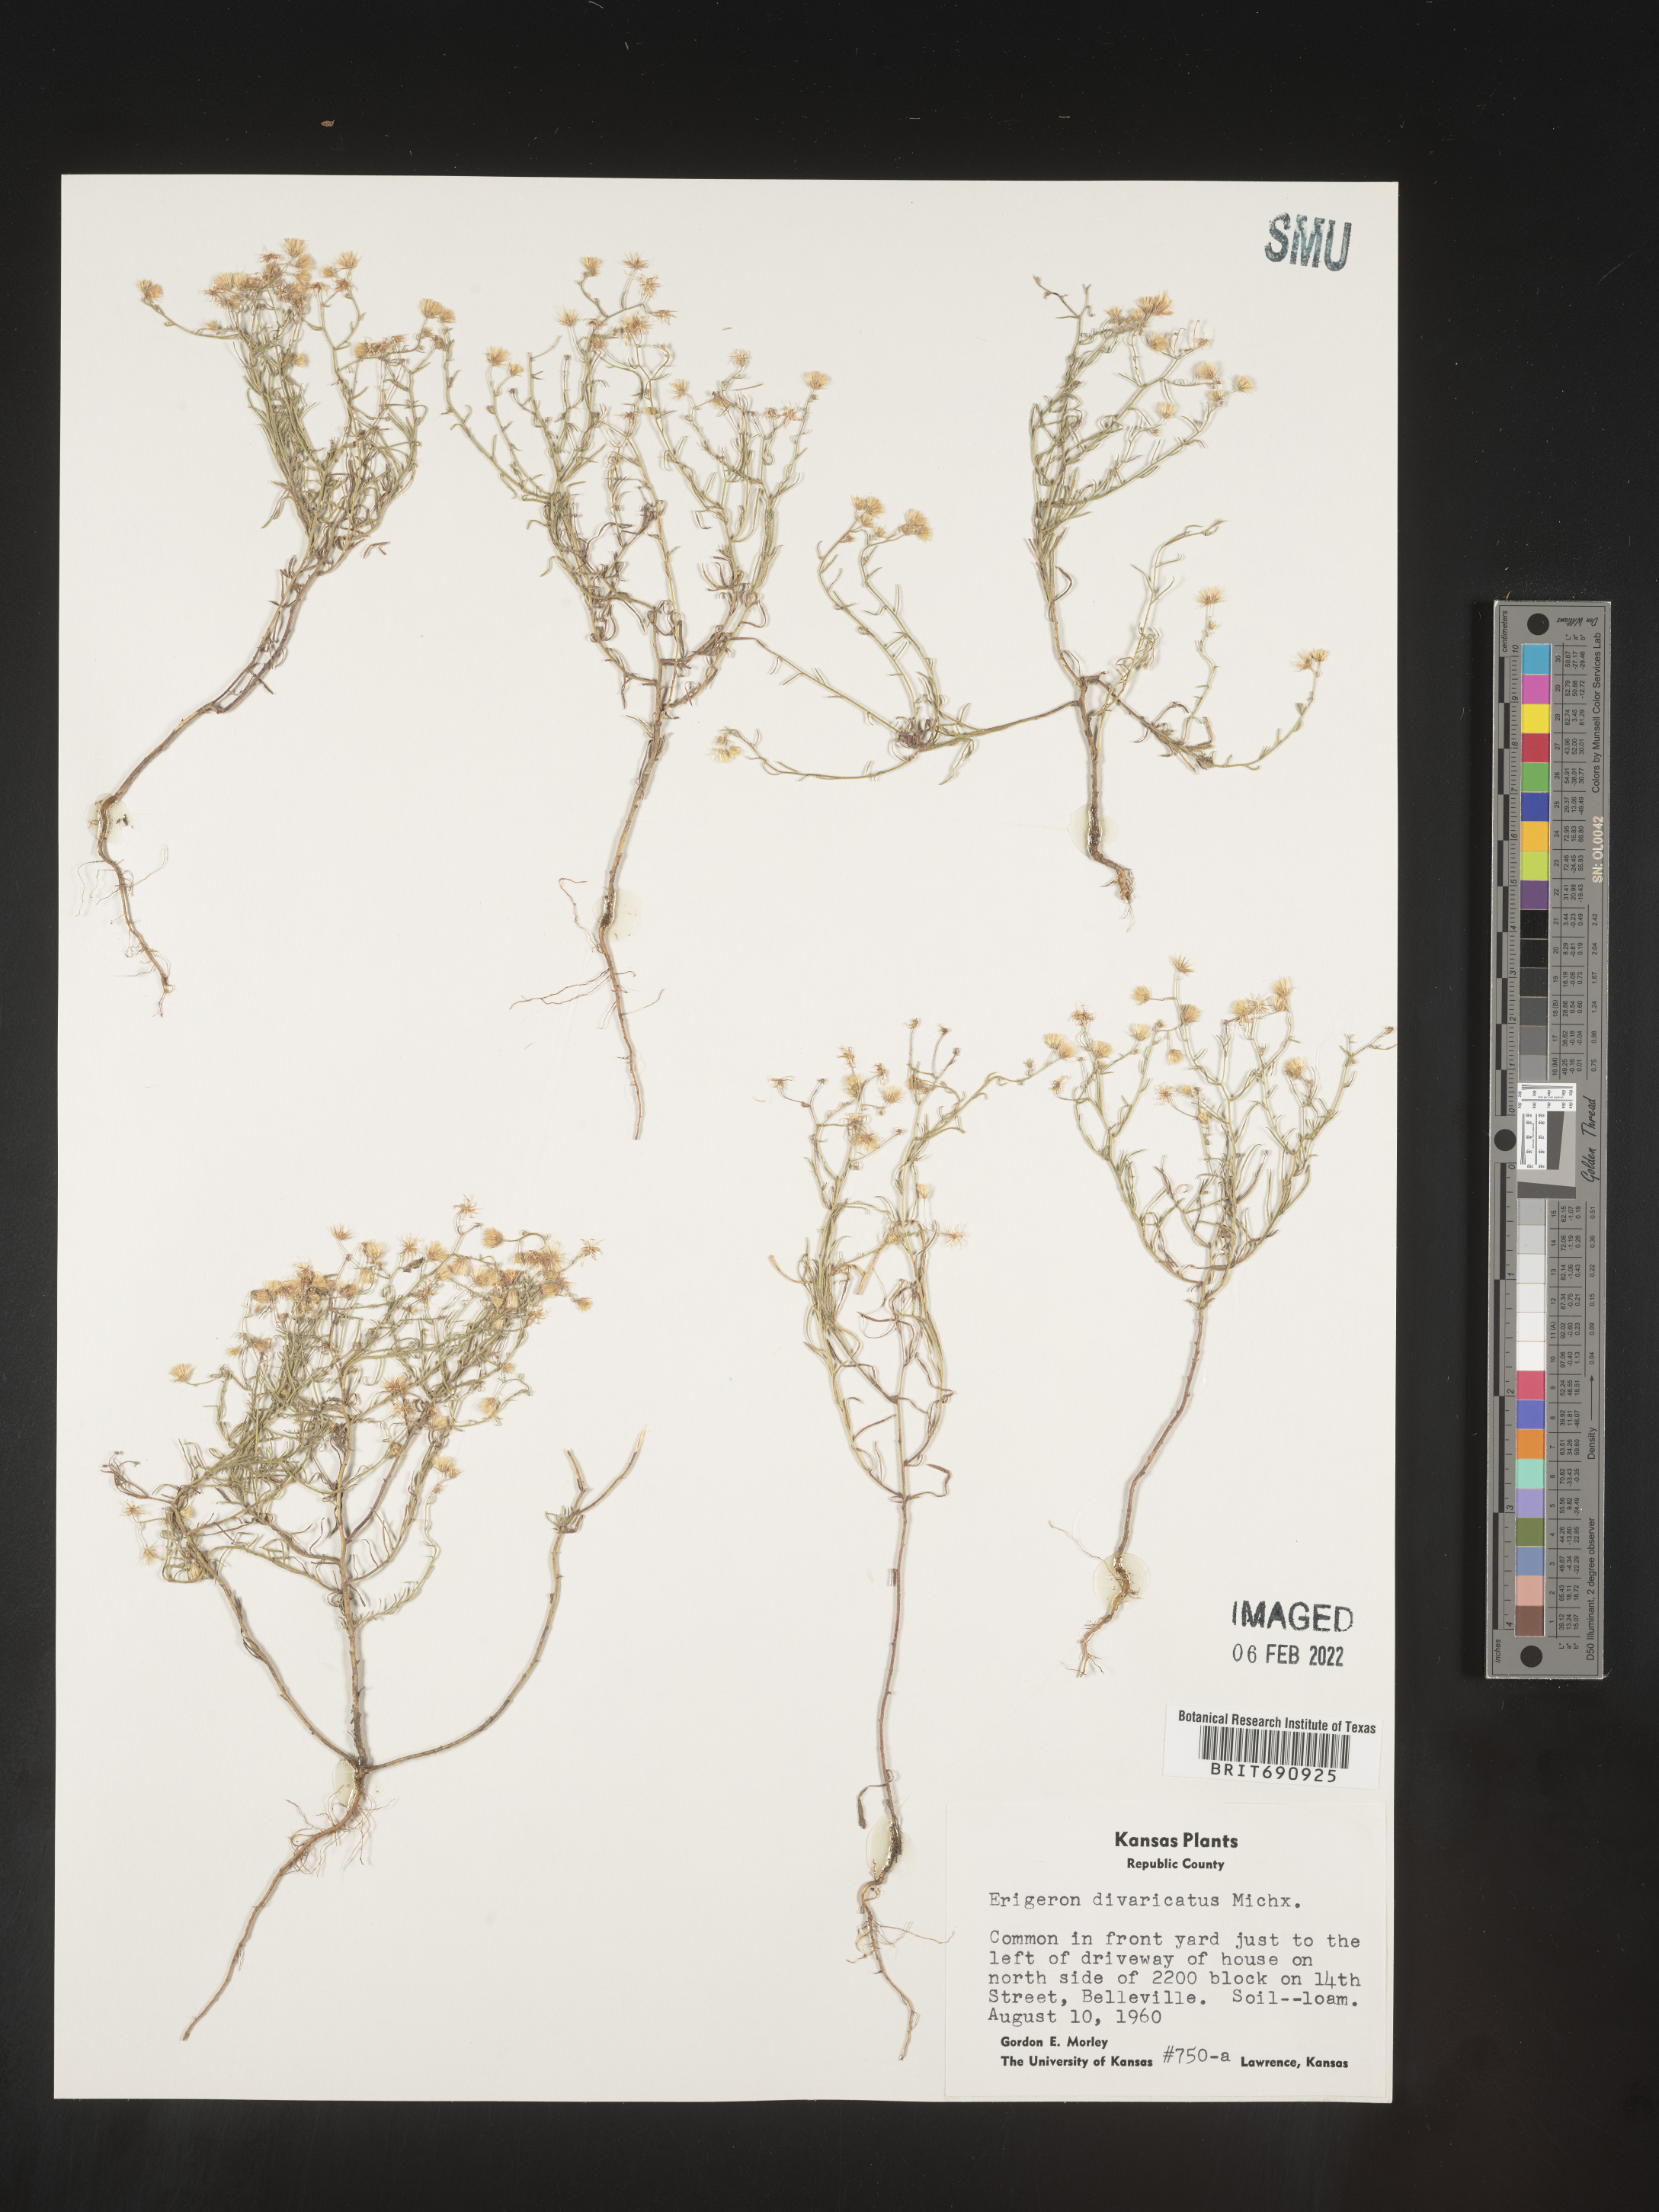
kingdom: Plantae
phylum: Tracheophyta
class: Magnoliopsida
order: Asterales
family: Asteraceae
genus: Erigeron
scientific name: Erigeron divaricatus
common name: Dwarf conyza
